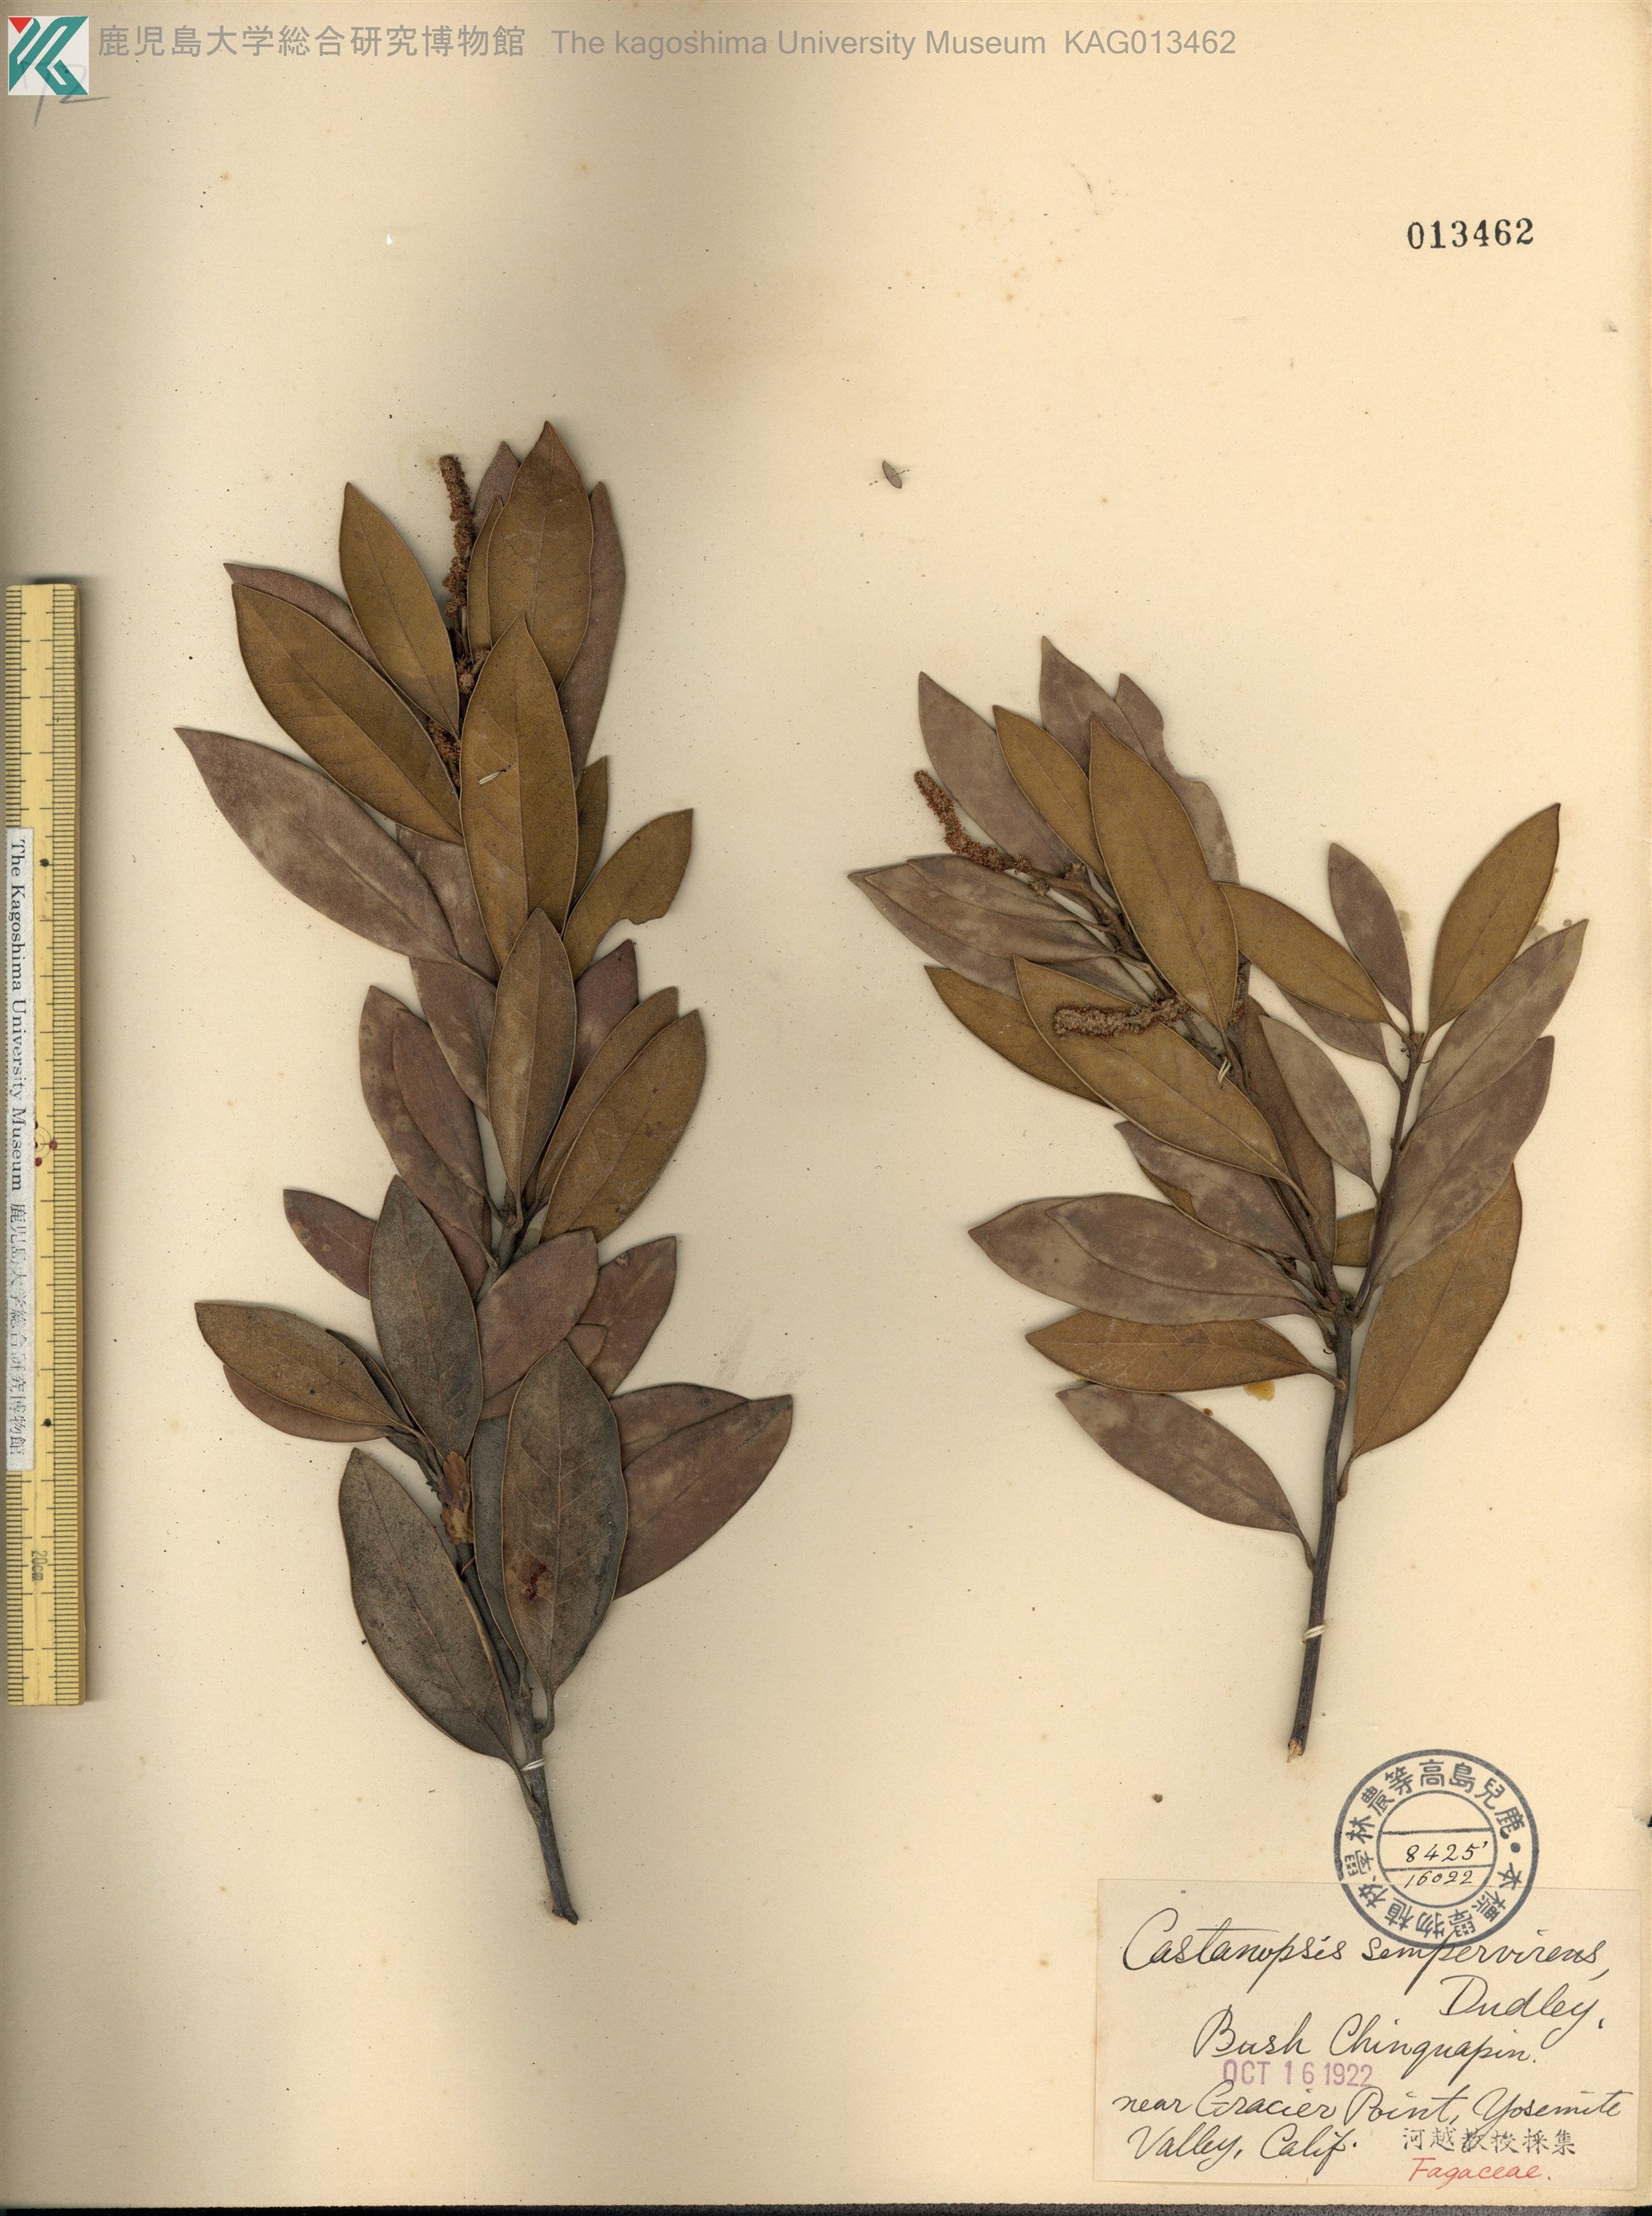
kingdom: Plantae
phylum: Tracheophyta
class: Magnoliopsida
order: Fagales
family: Fagaceae
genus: Chrysolepis
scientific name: Chrysolepis sempervirens
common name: Bush chinquapin
